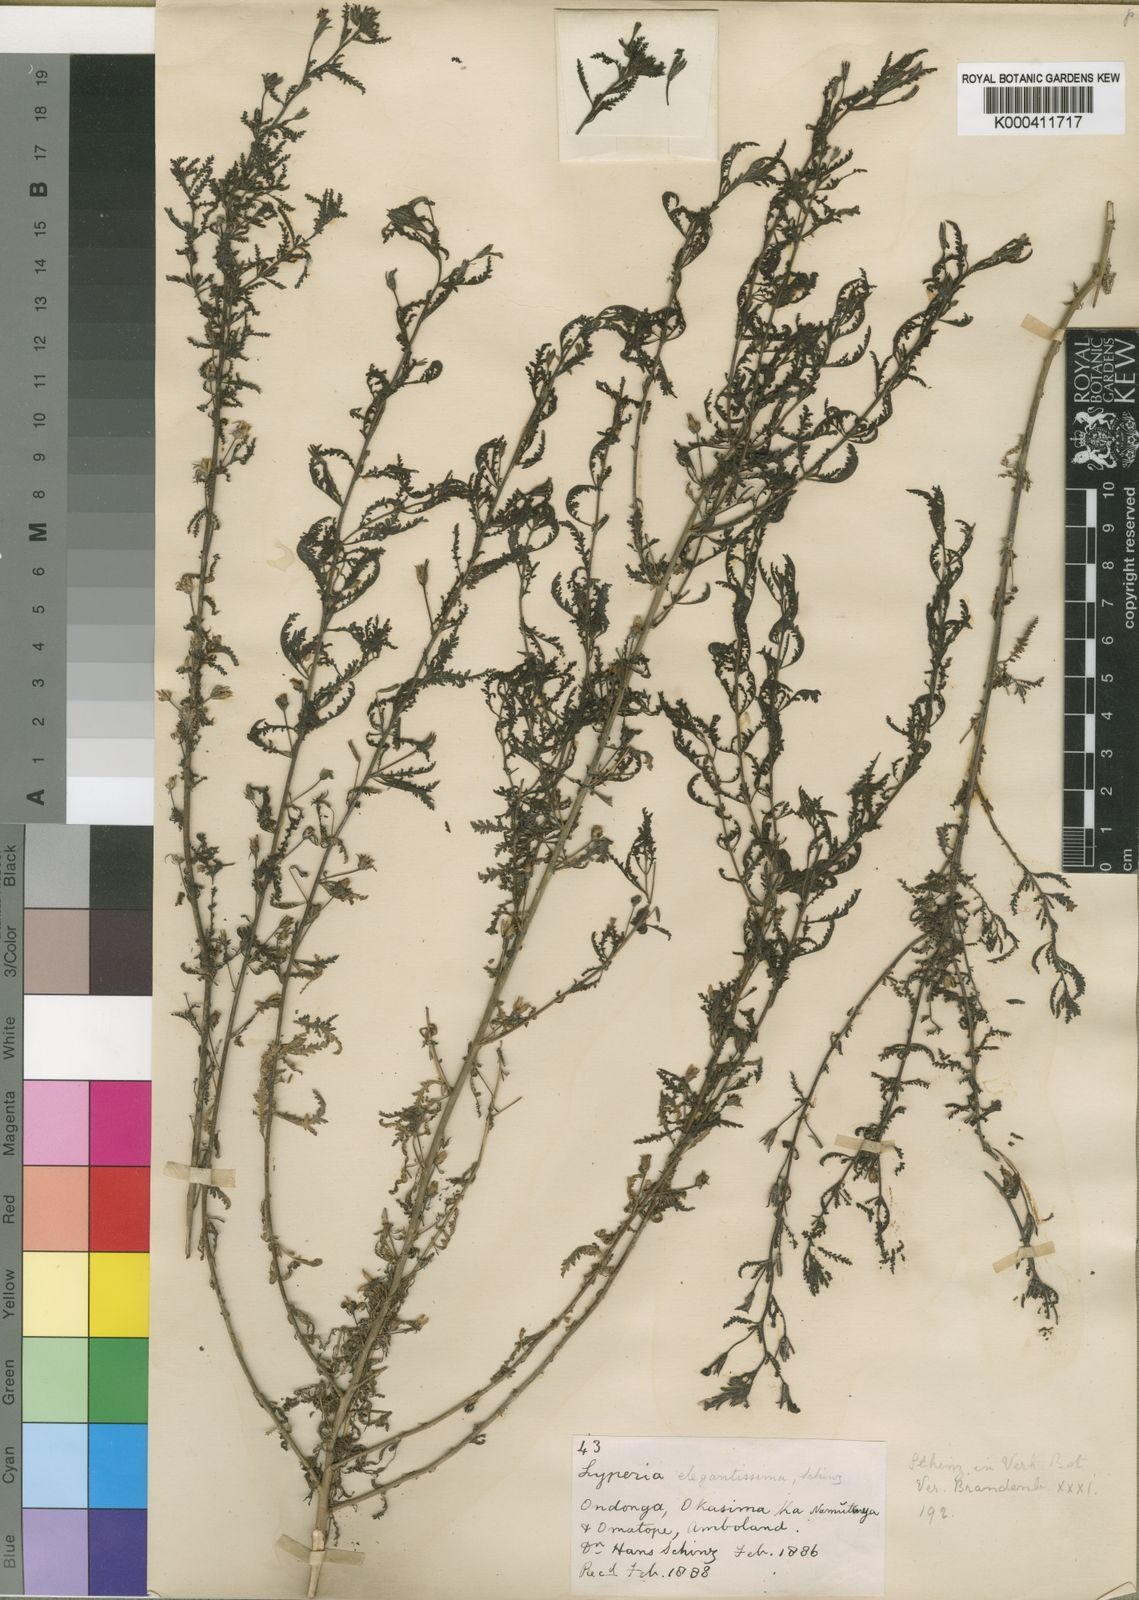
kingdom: Plantae
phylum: Tracheophyta
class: Magnoliopsida
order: Lamiales
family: Scrophulariaceae
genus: Jamesbrittenia
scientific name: Jamesbrittenia
